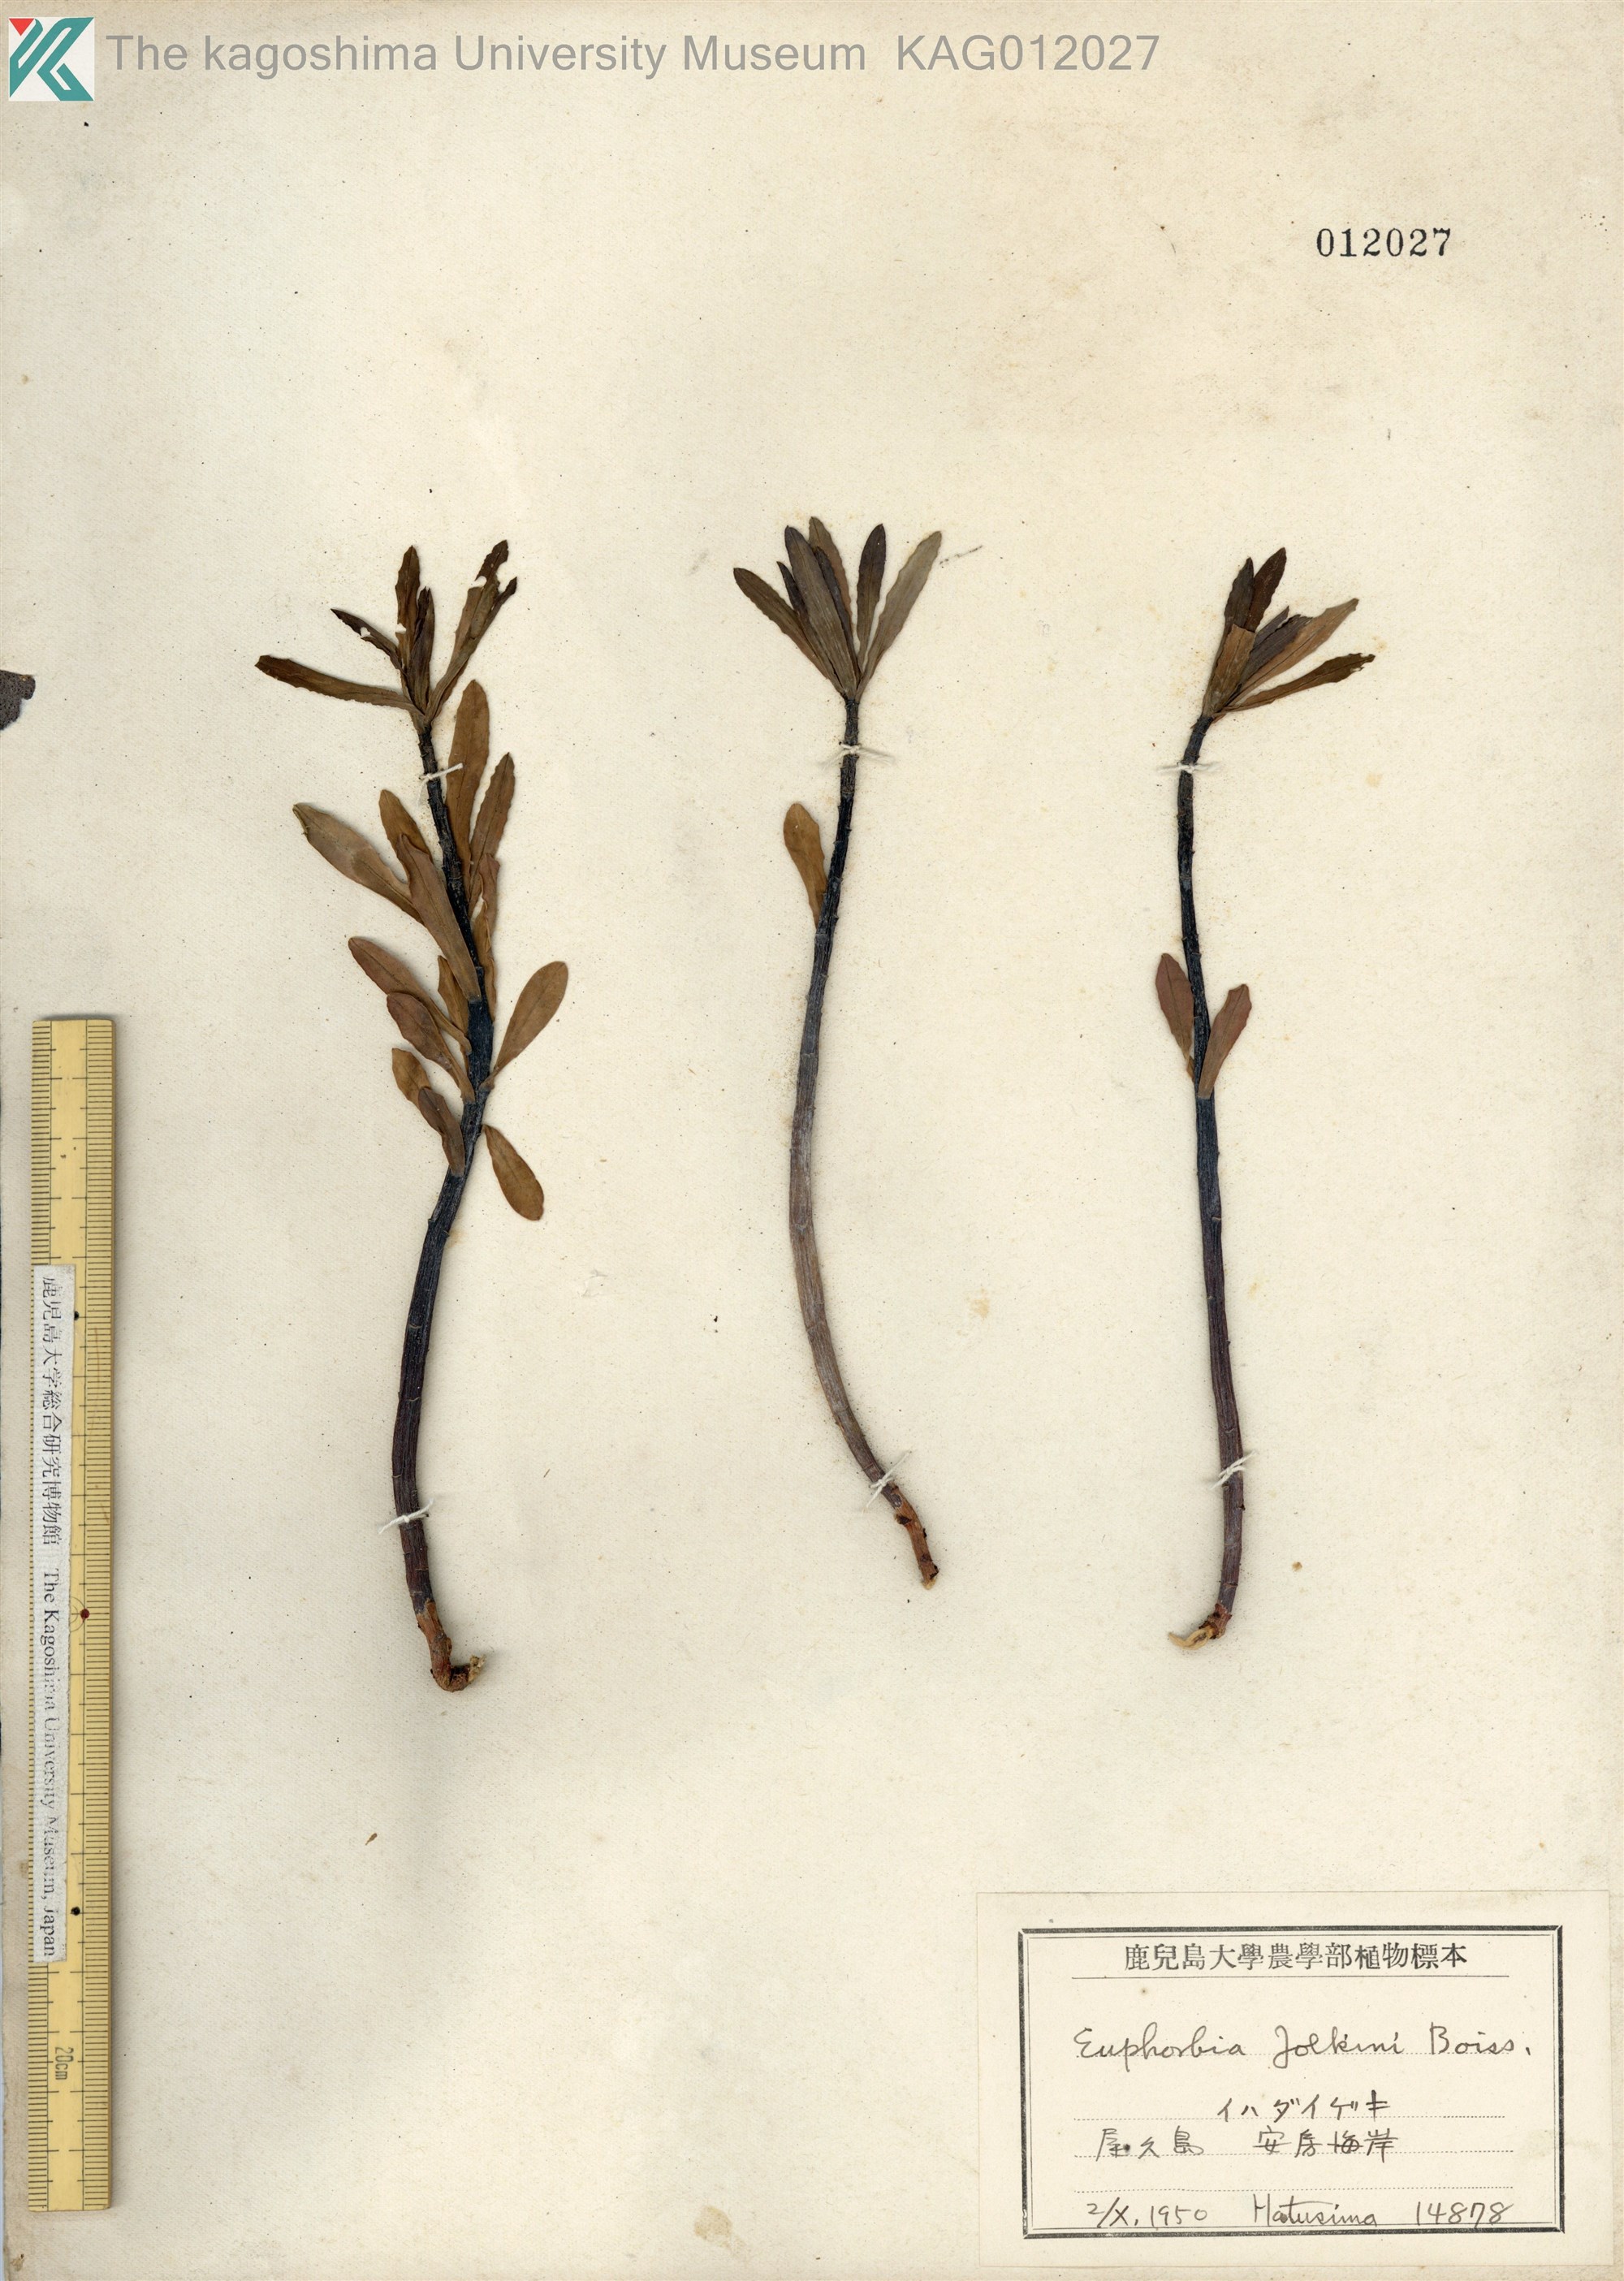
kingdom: Plantae
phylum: Tracheophyta
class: Magnoliopsida
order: Malpighiales
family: Euphorbiaceae
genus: Euphorbia
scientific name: Euphorbia jolkinii
